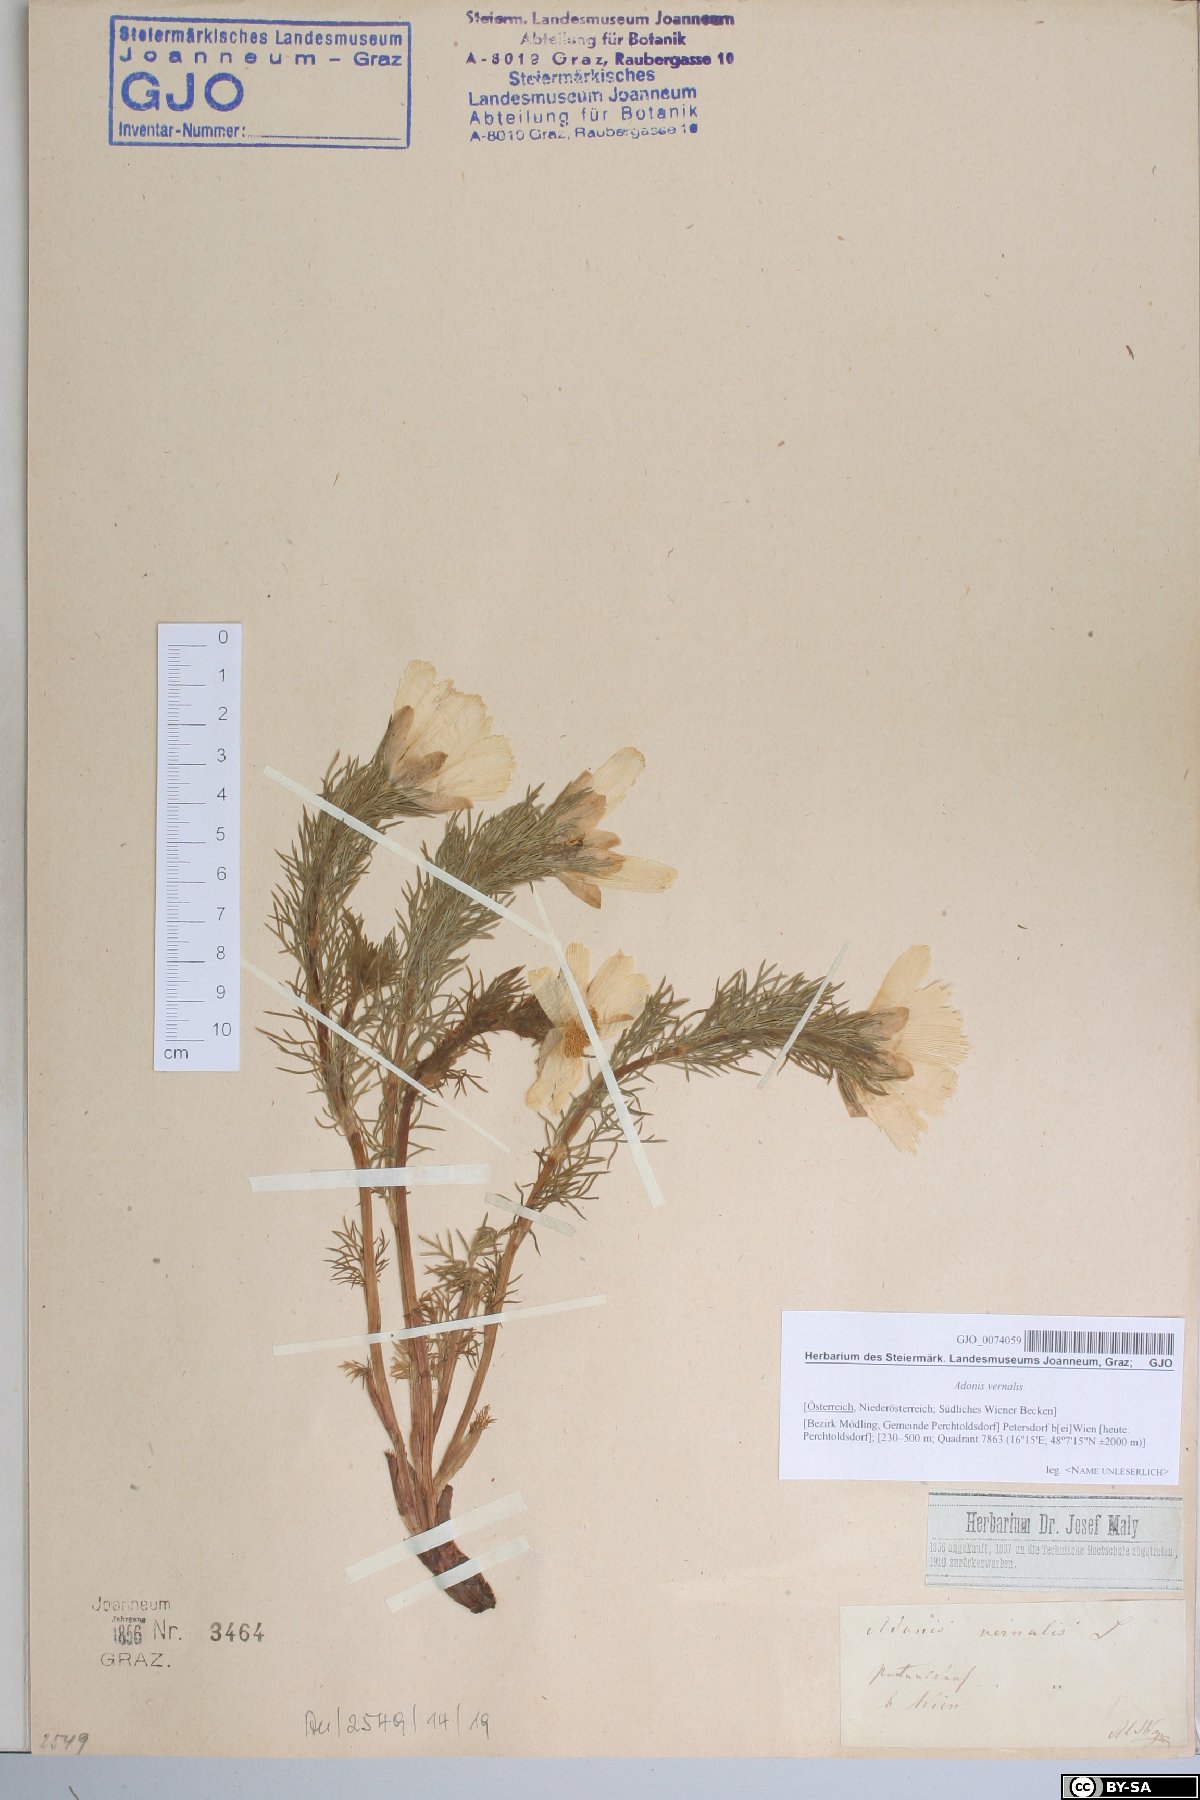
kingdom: Plantae
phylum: Tracheophyta
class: Magnoliopsida
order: Ranunculales
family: Ranunculaceae
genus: Adonis
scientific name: Adonis vernalis
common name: Yellow pheasants-eye
